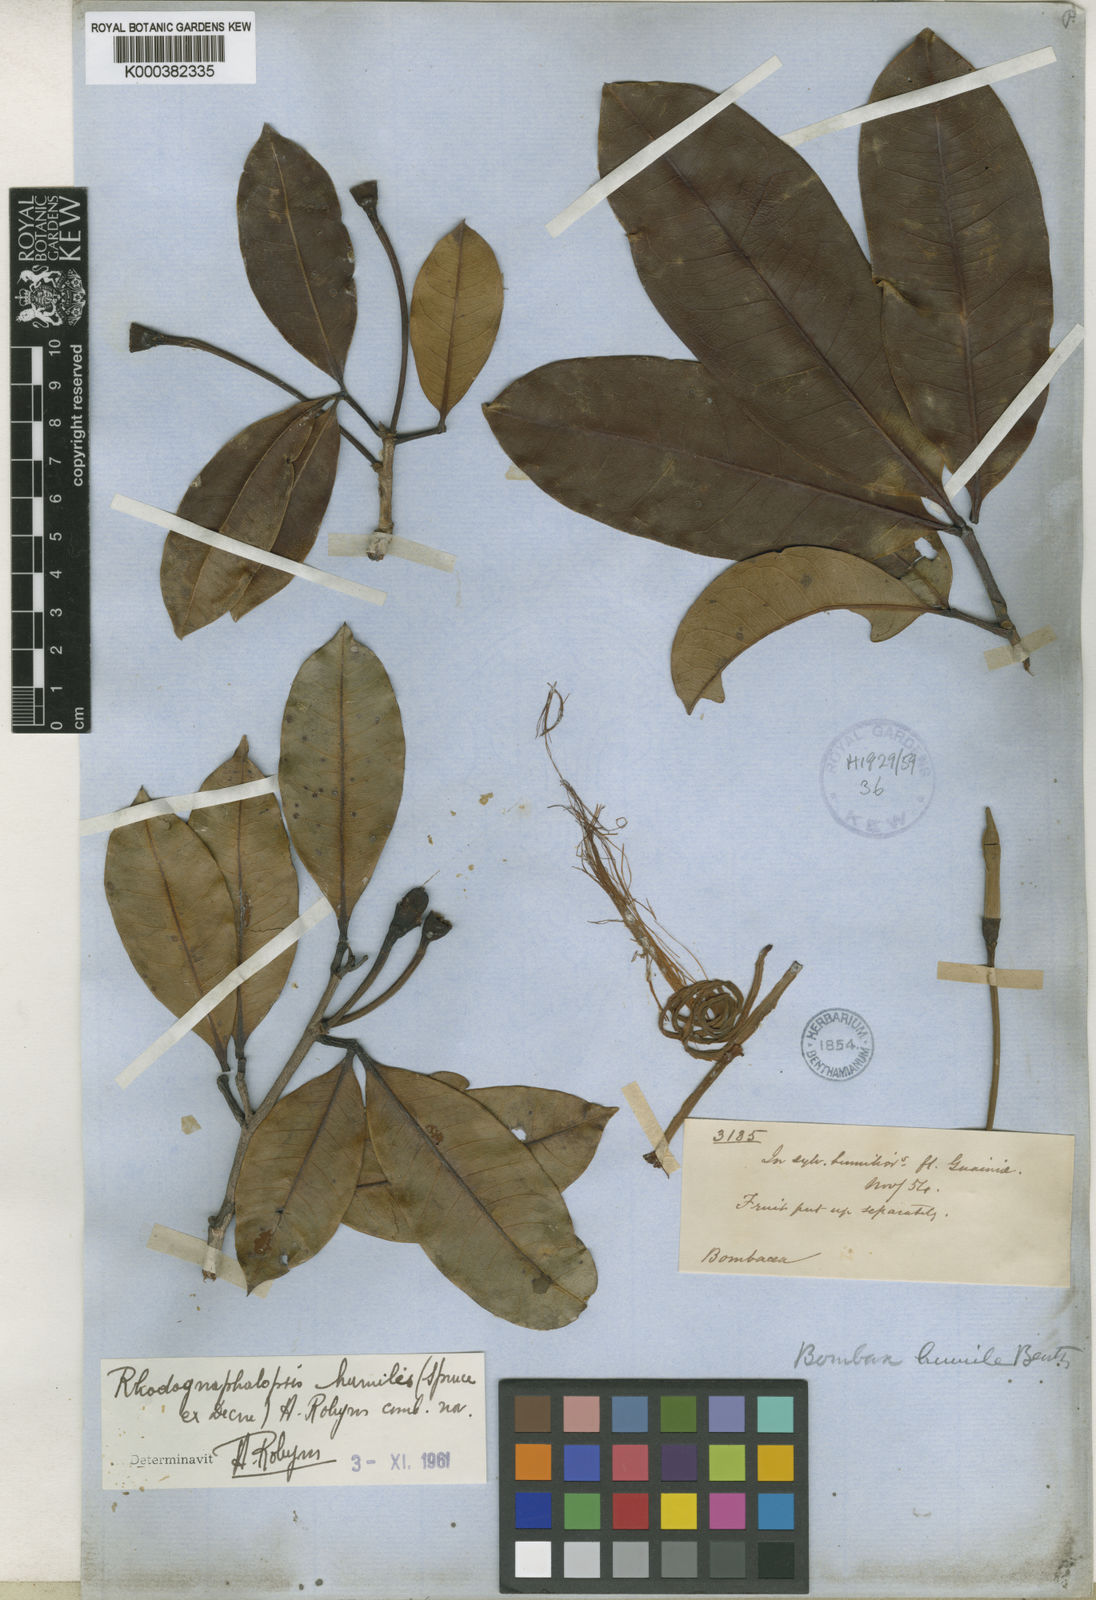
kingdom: Plantae
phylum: Tracheophyta
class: Magnoliopsida
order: Malvales
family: Malvaceae
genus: Pachira
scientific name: Pachira humilis
